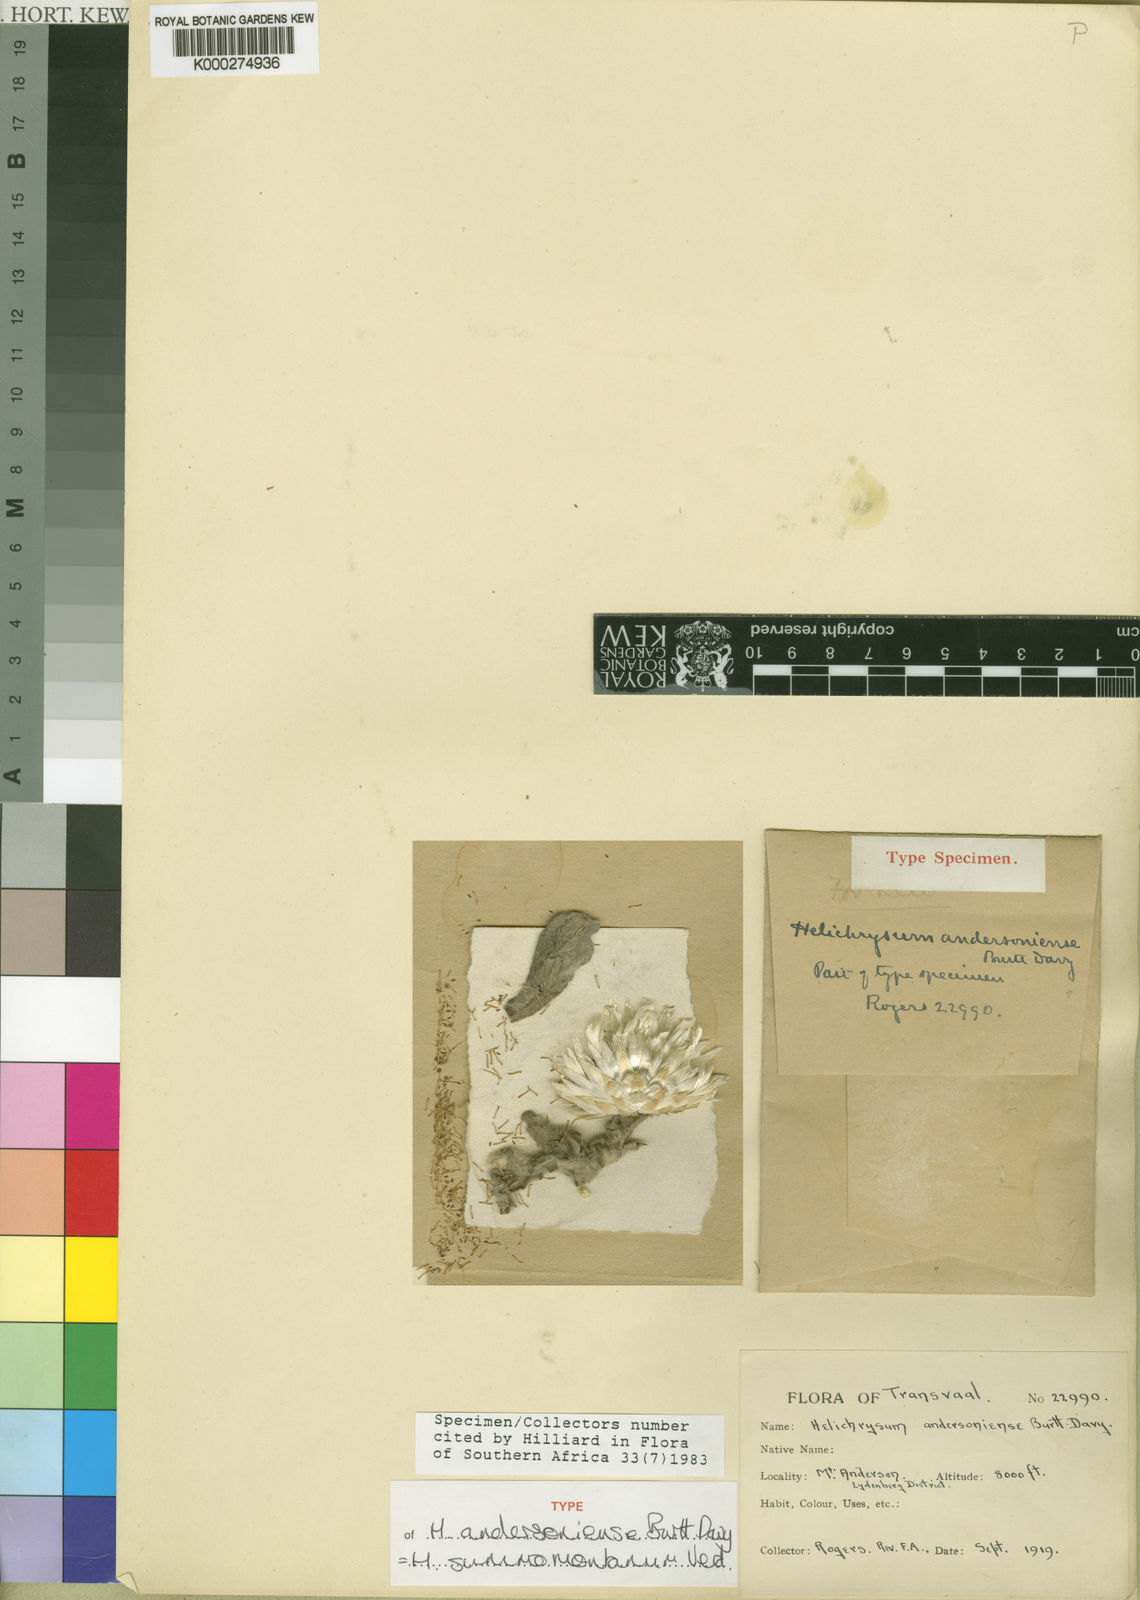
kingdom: Plantae
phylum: Tracheophyta
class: Magnoliopsida
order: Asterales
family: Asteraceae
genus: Helichrysum
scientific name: Helichrysum summo-montanum
